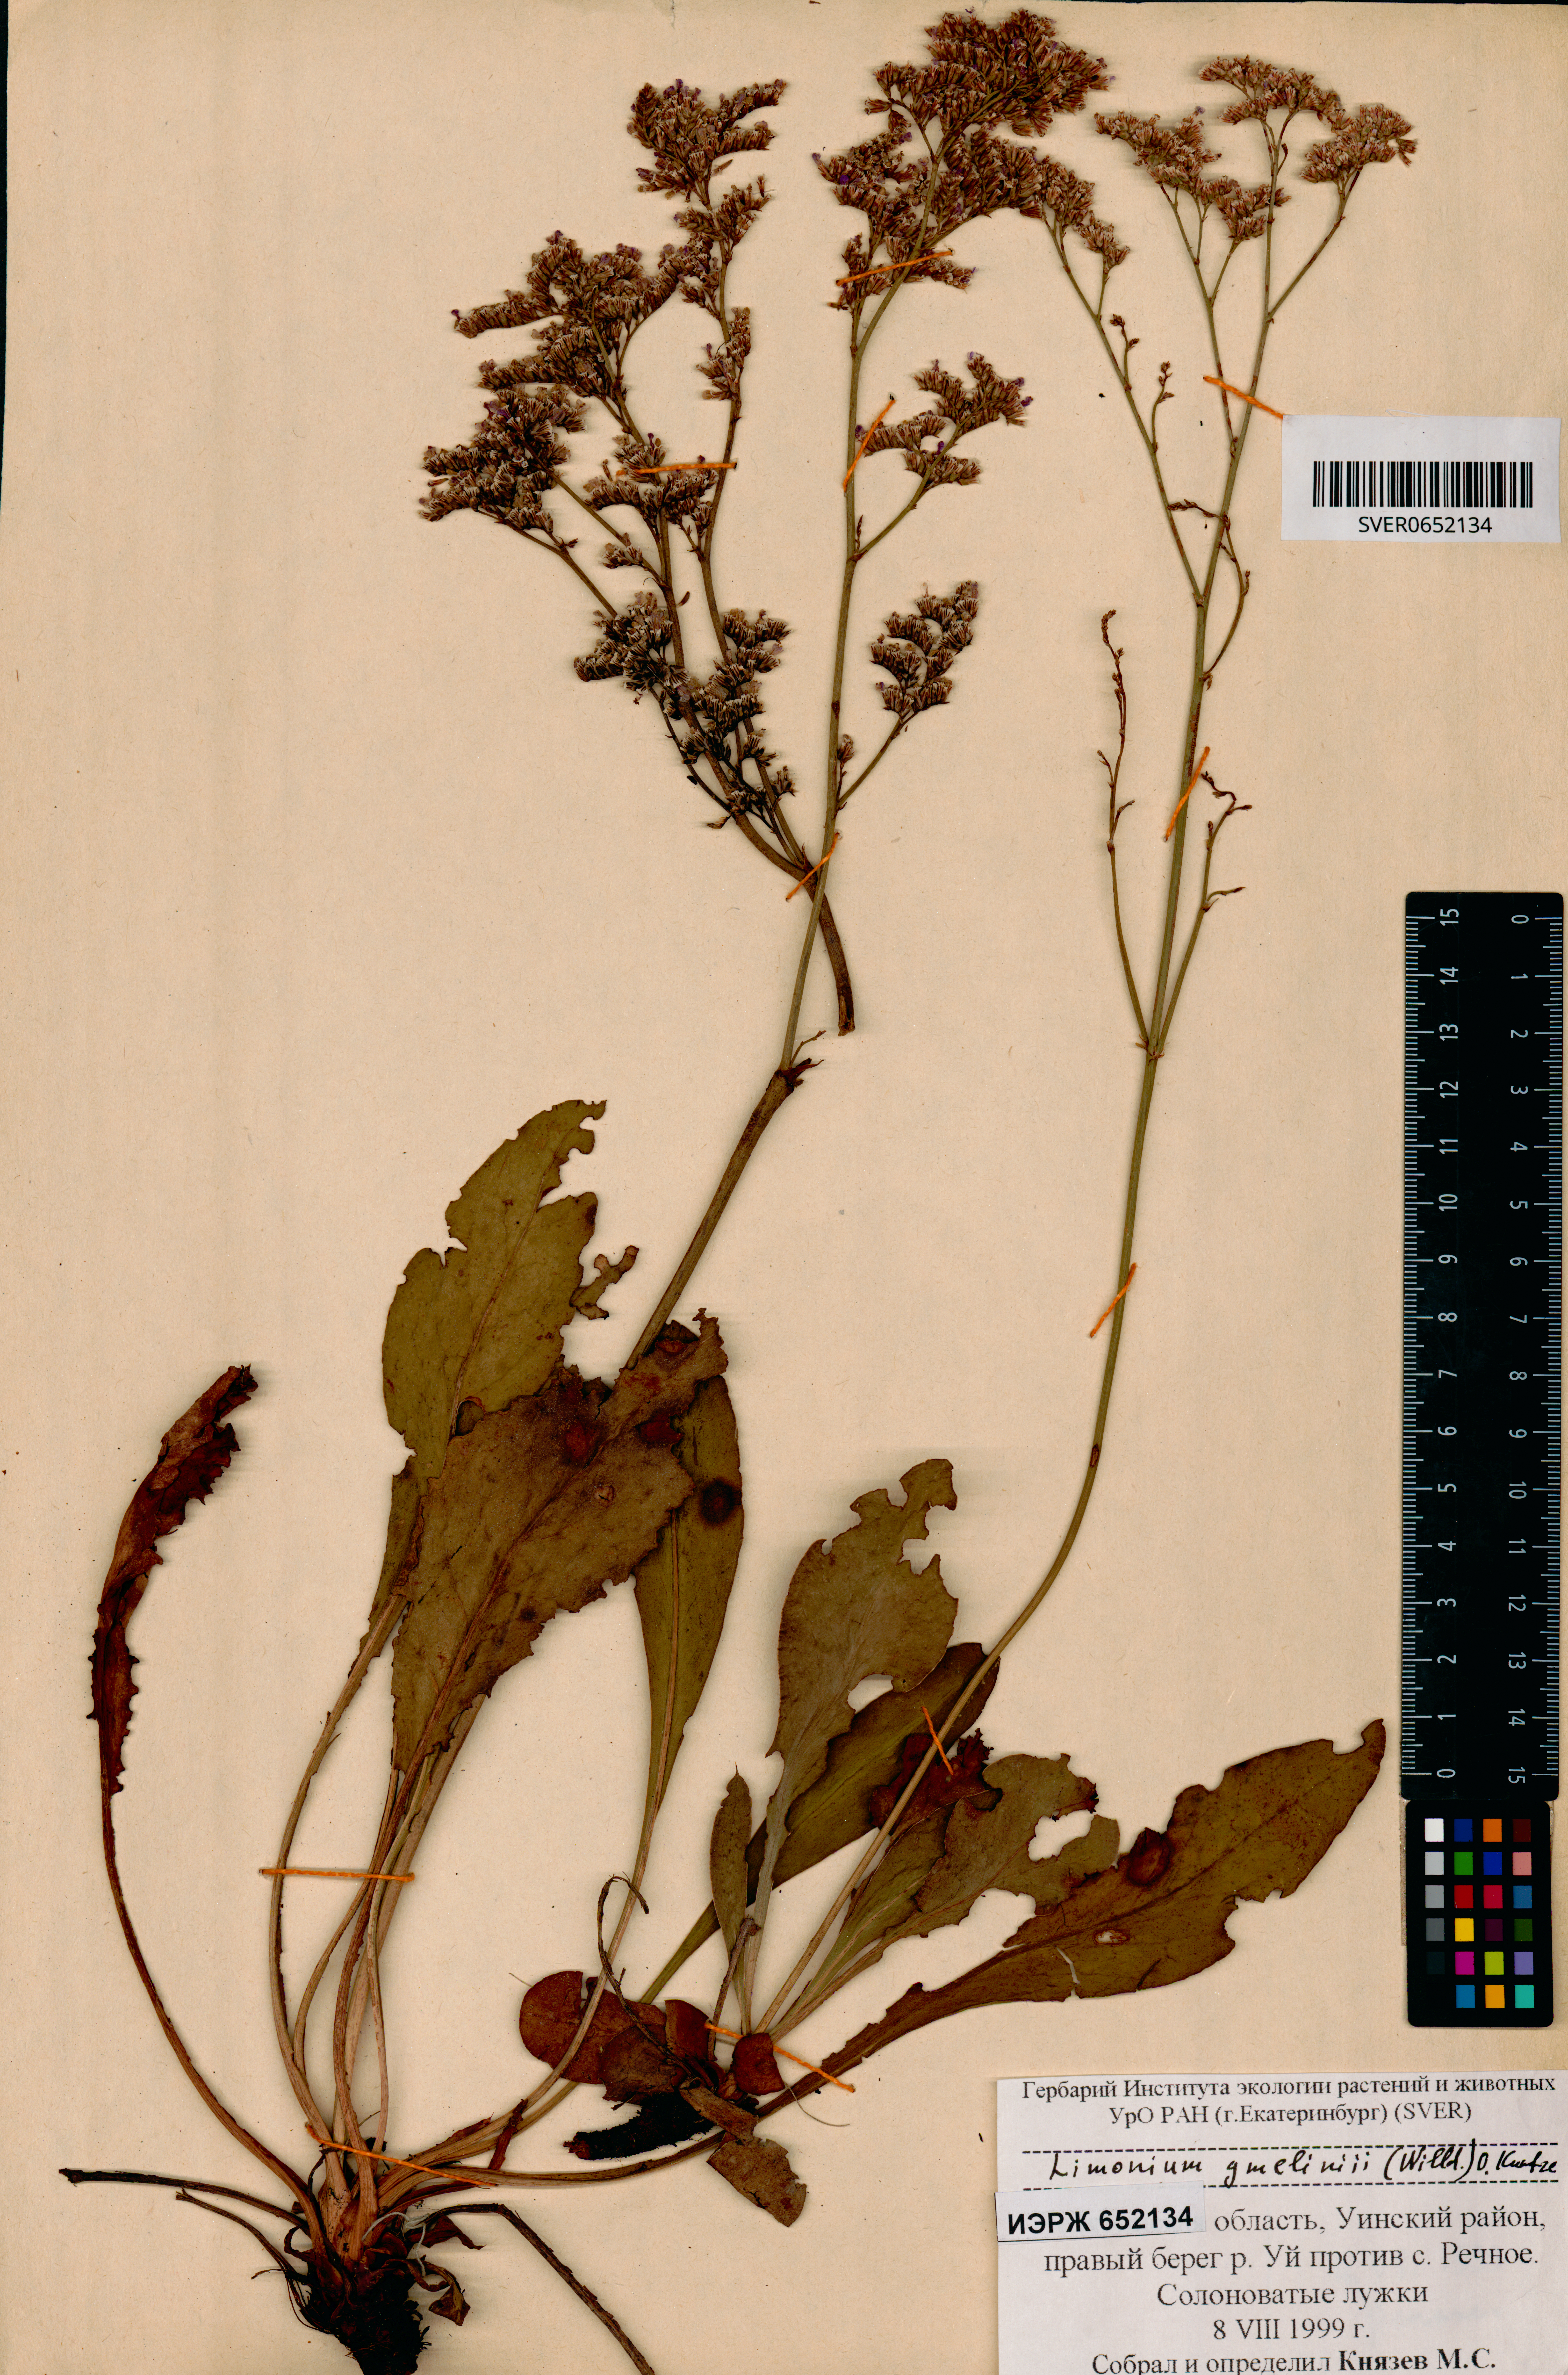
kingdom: Plantae
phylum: Tracheophyta
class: Magnoliopsida
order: Caryophyllales
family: Plumbaginaceae
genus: Limonium
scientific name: Limonium gmelini
